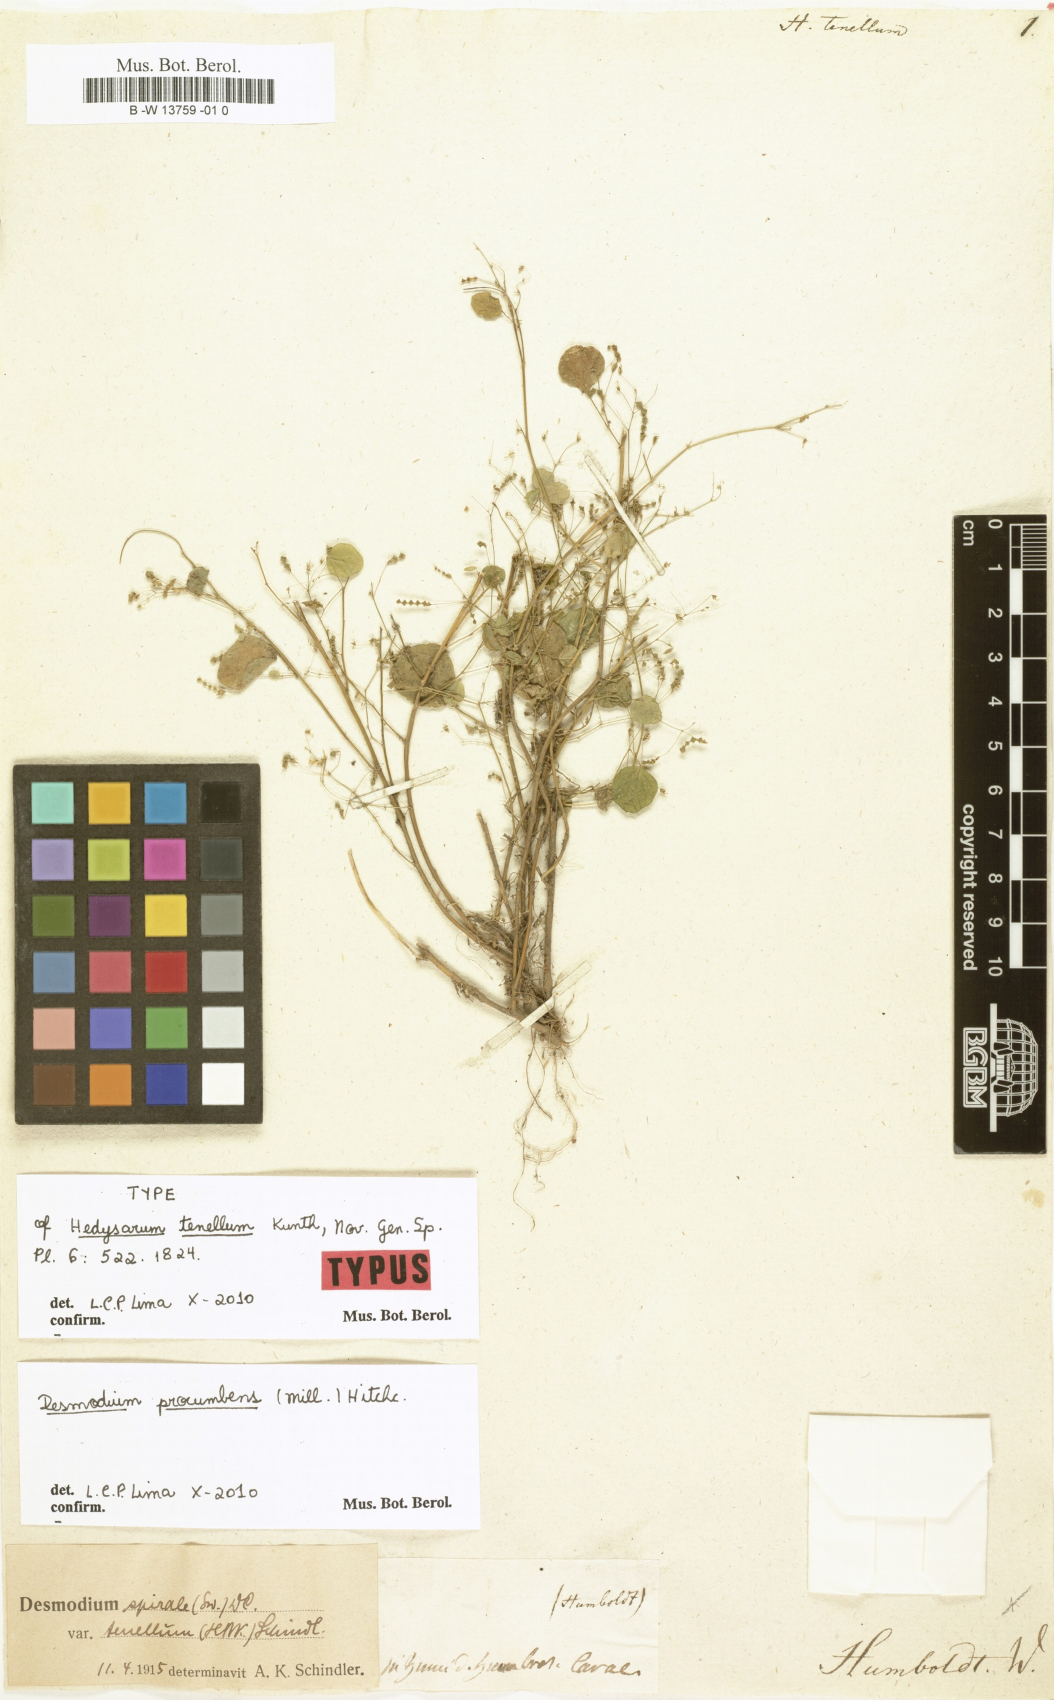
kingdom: Plantae
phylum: Tracheophyta
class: Magnoliopsida
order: Fabales
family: Fabaceae
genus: Desmodium
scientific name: Desmodium procumbens
